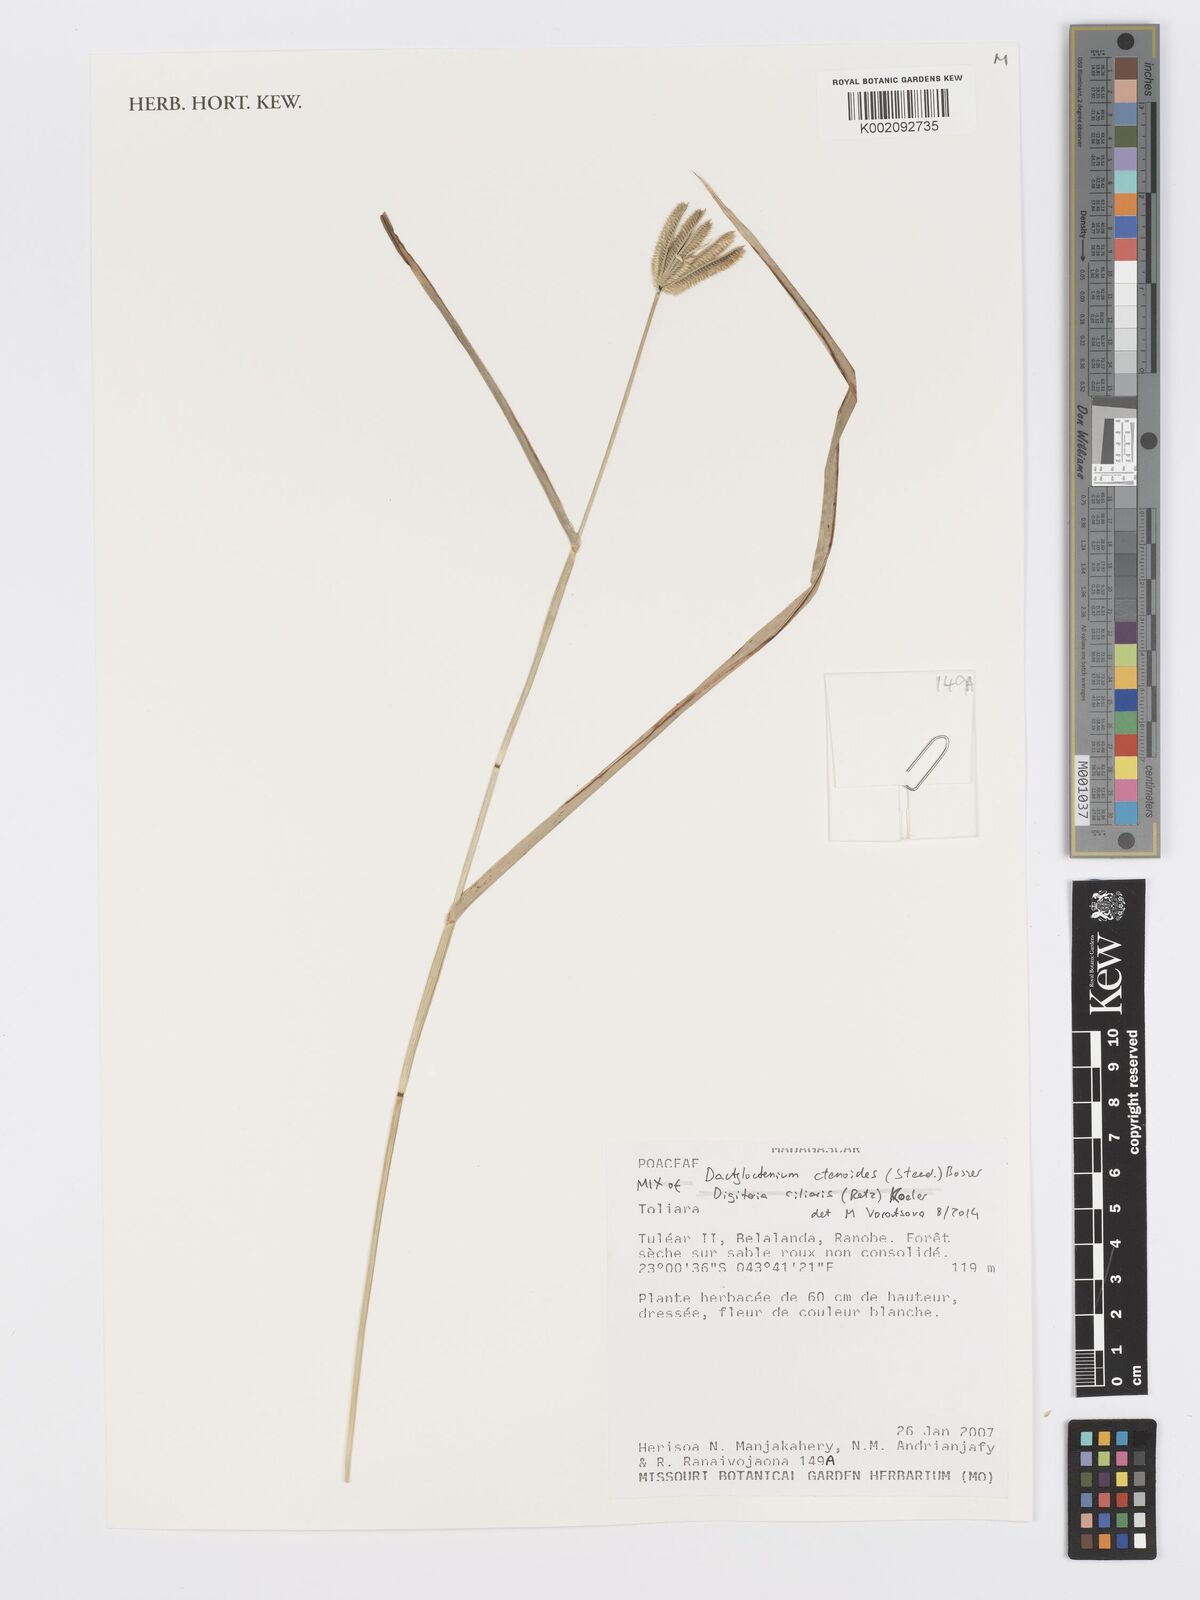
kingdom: Plantae
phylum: Tracheophyta
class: Liliopsida
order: Poales
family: Poaceae
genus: Dactyloctenium
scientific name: Dactyloctenium ctenoides
